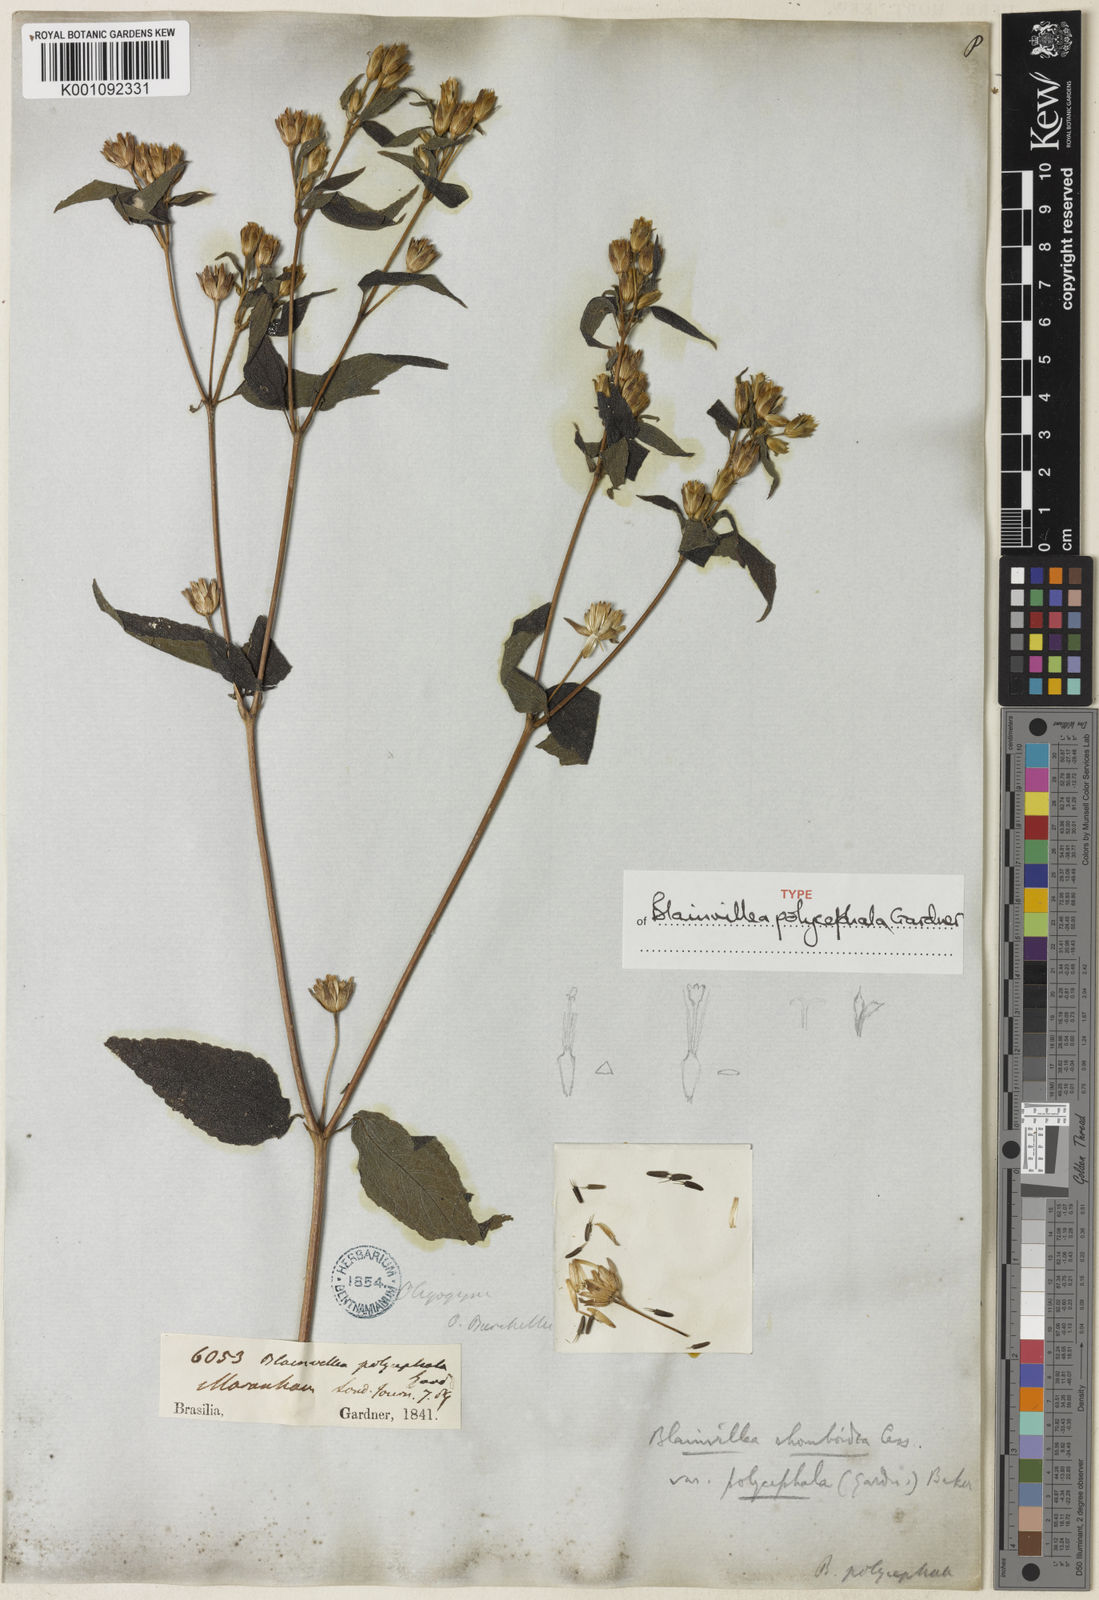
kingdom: Plantae
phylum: Tracheophyta
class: Magnoliopsida
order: Asterales
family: Asteraceae
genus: Blainvillea
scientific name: Blainvillea acmella
